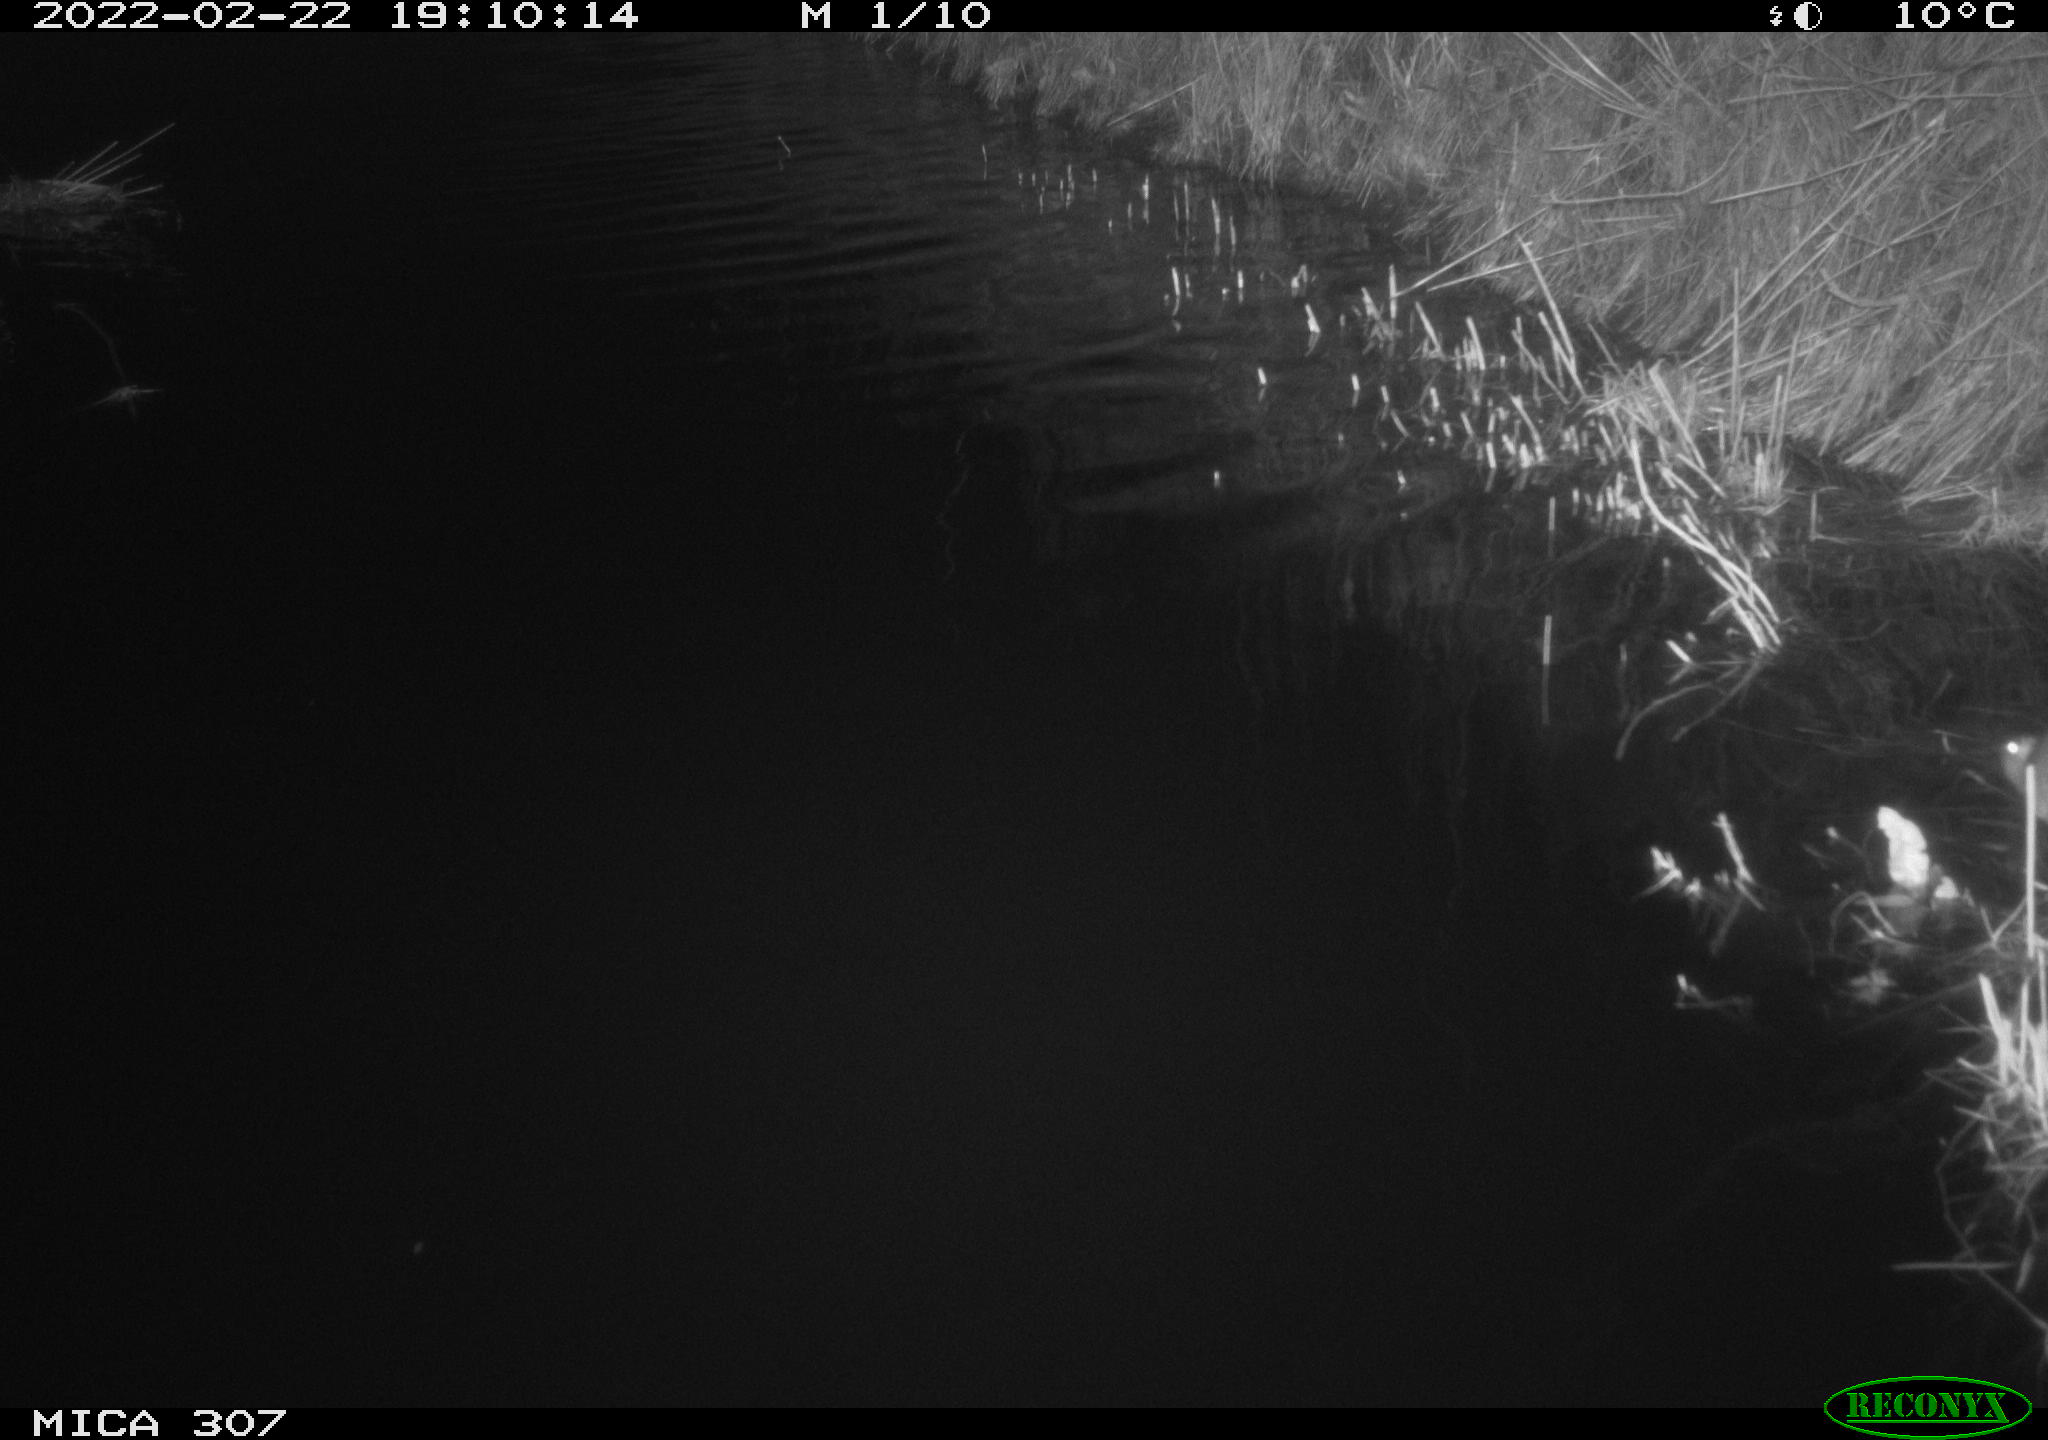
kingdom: Animalia
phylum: Chordata
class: Mammalia
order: Rodentia
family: Muridae
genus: Rattus
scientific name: Rattus norvegicus
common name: Brown rat
